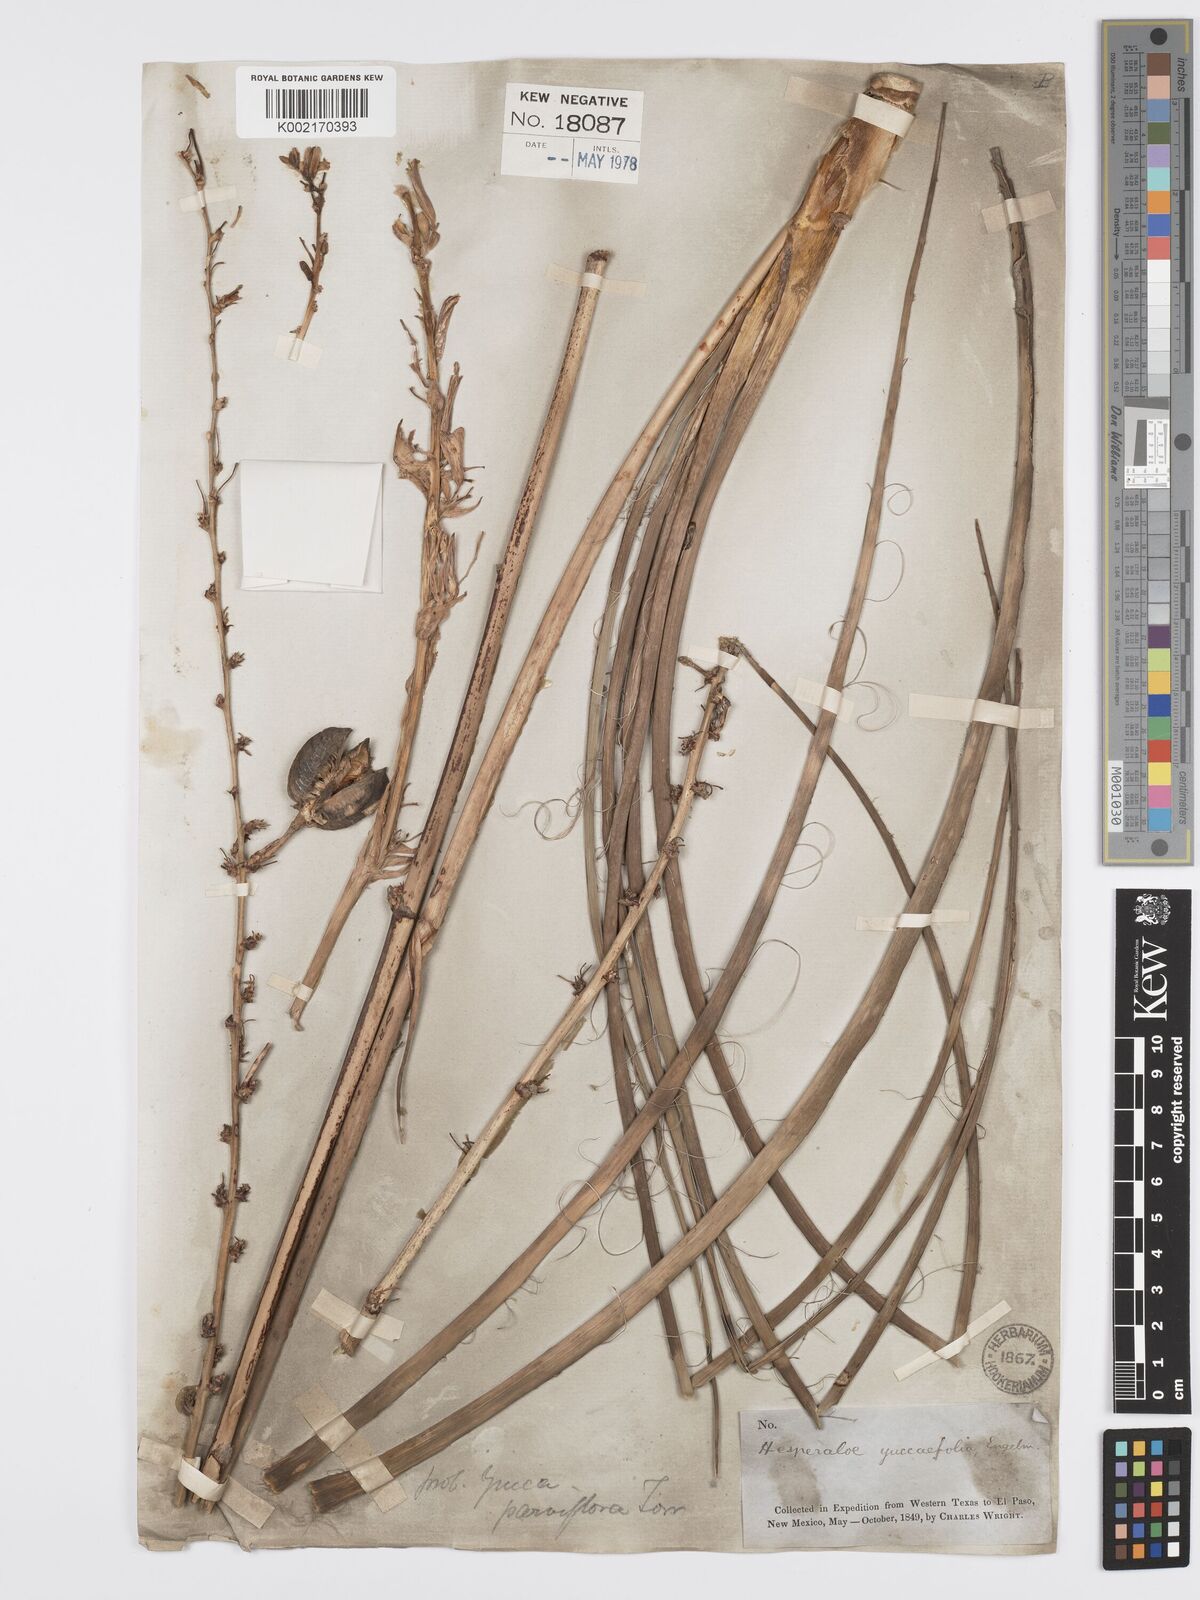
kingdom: Plantae
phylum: Tracheophyta
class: Liliopsida
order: Asparagales
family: Asparagaceae
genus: Hesperaloe
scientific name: Hesperaloe engelmannii
